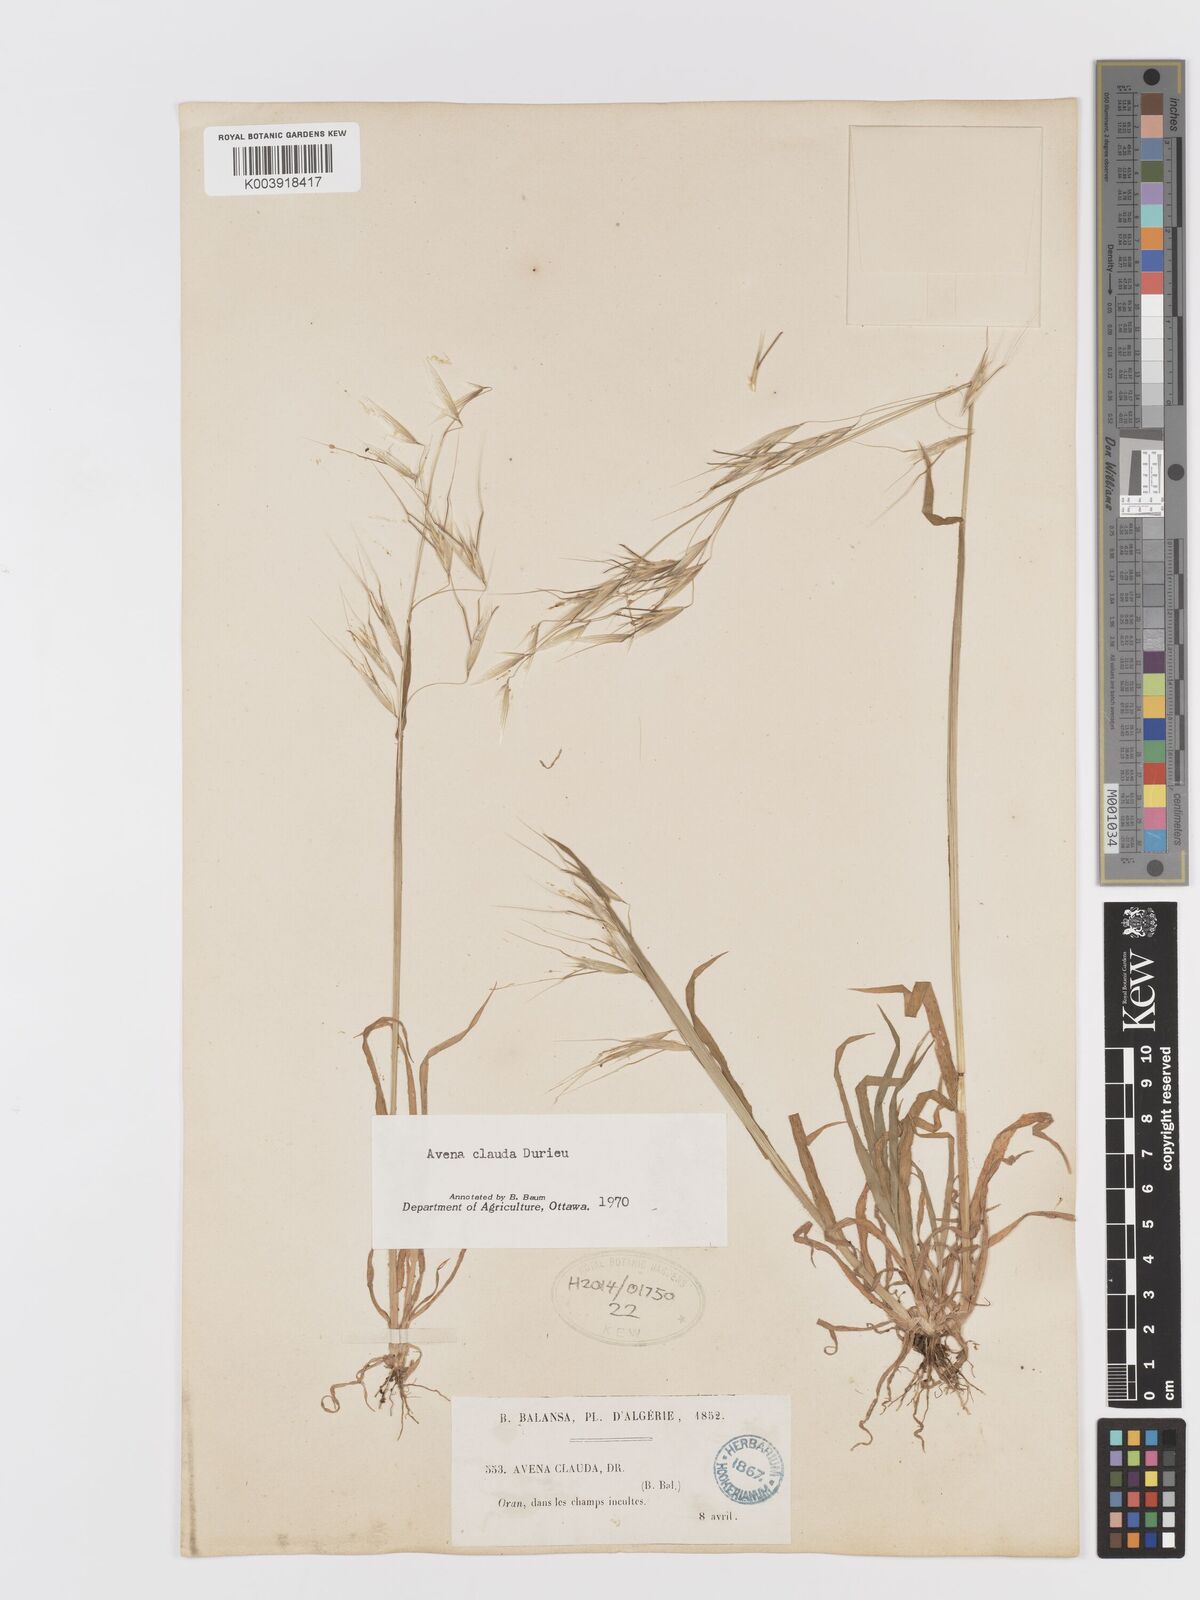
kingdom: Plantae
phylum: Tracheophyta
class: Liliopsida
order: Poales
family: Poaceae
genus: Avena
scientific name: Avena clauda
